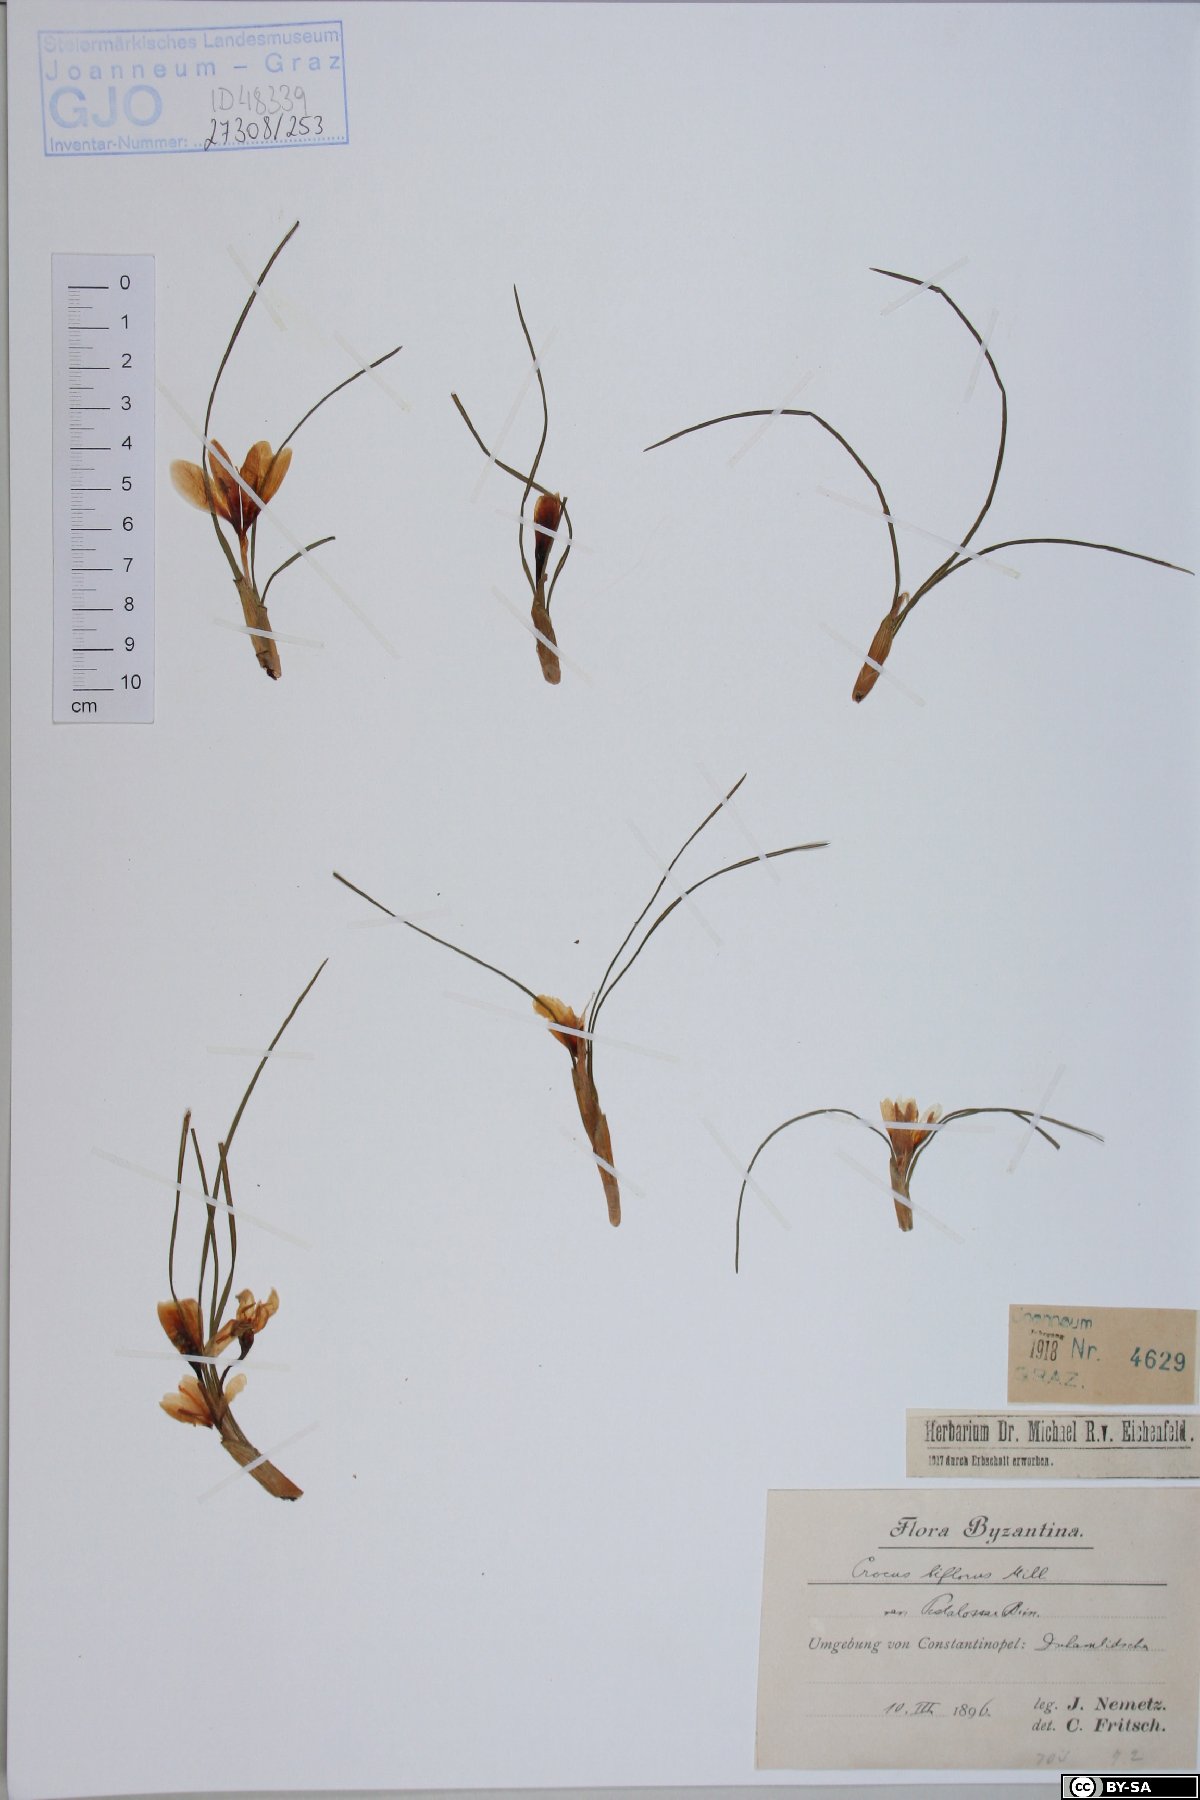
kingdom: Plantae
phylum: Tracheophyta
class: Liliopsida
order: Asparagales
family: Iridaceae
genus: Crocus
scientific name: Crocus biflorus
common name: Silvery crocus
